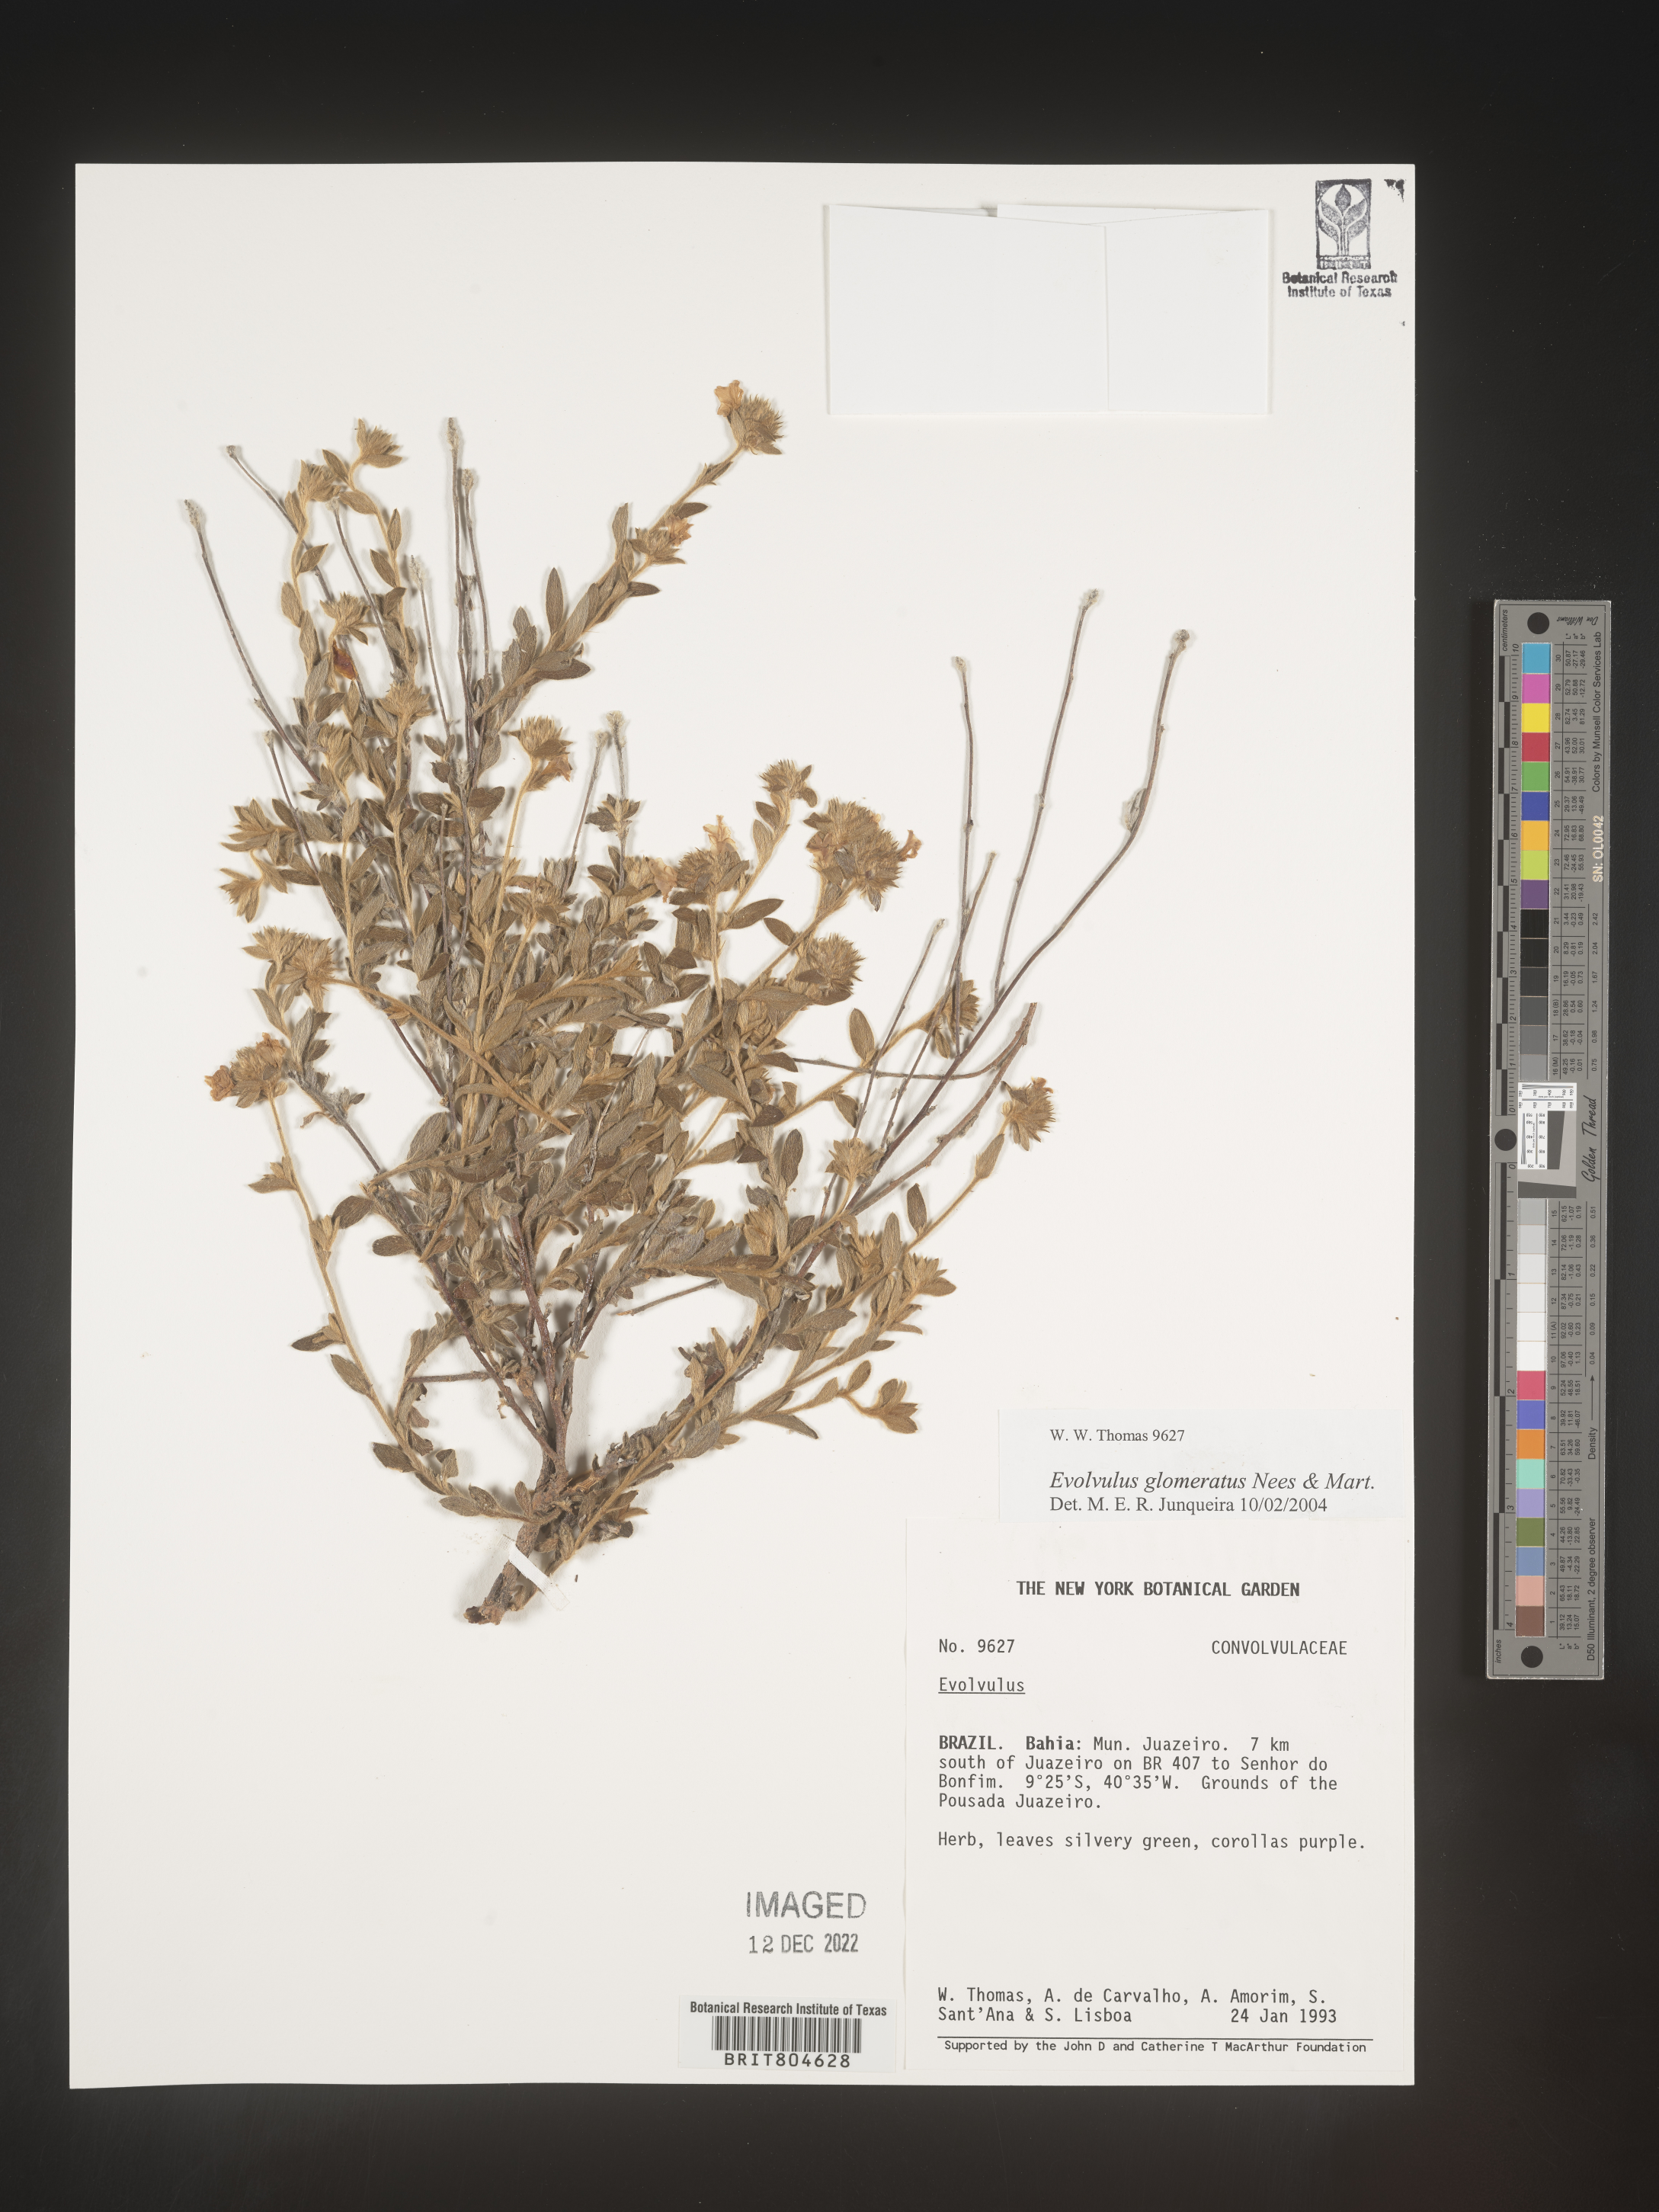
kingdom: Plantae
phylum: Tracheophyta
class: Magnoliopsida
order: Solanales
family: Convolvulaceae
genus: Evolvulus
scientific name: Evolvulus
